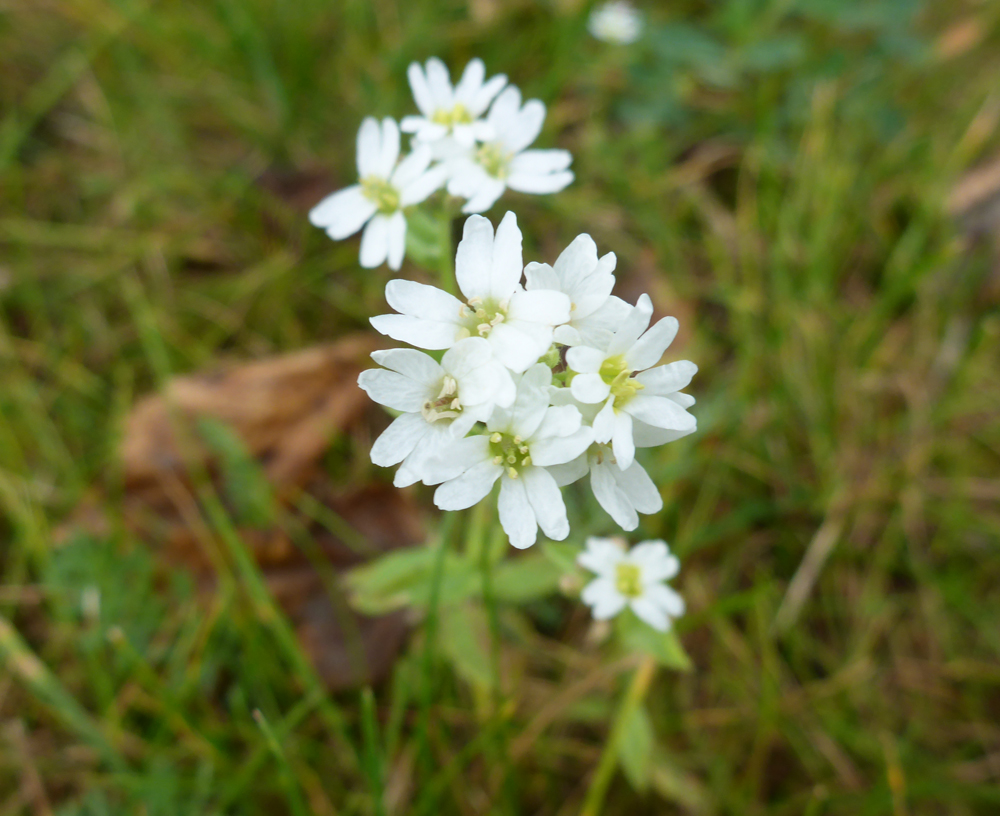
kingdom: Plantae
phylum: Tracheophyta
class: Magnoliopsida
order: Brassicales
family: Brassicaceae
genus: Berteroa
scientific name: Berteroa incana
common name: Hoary alison
